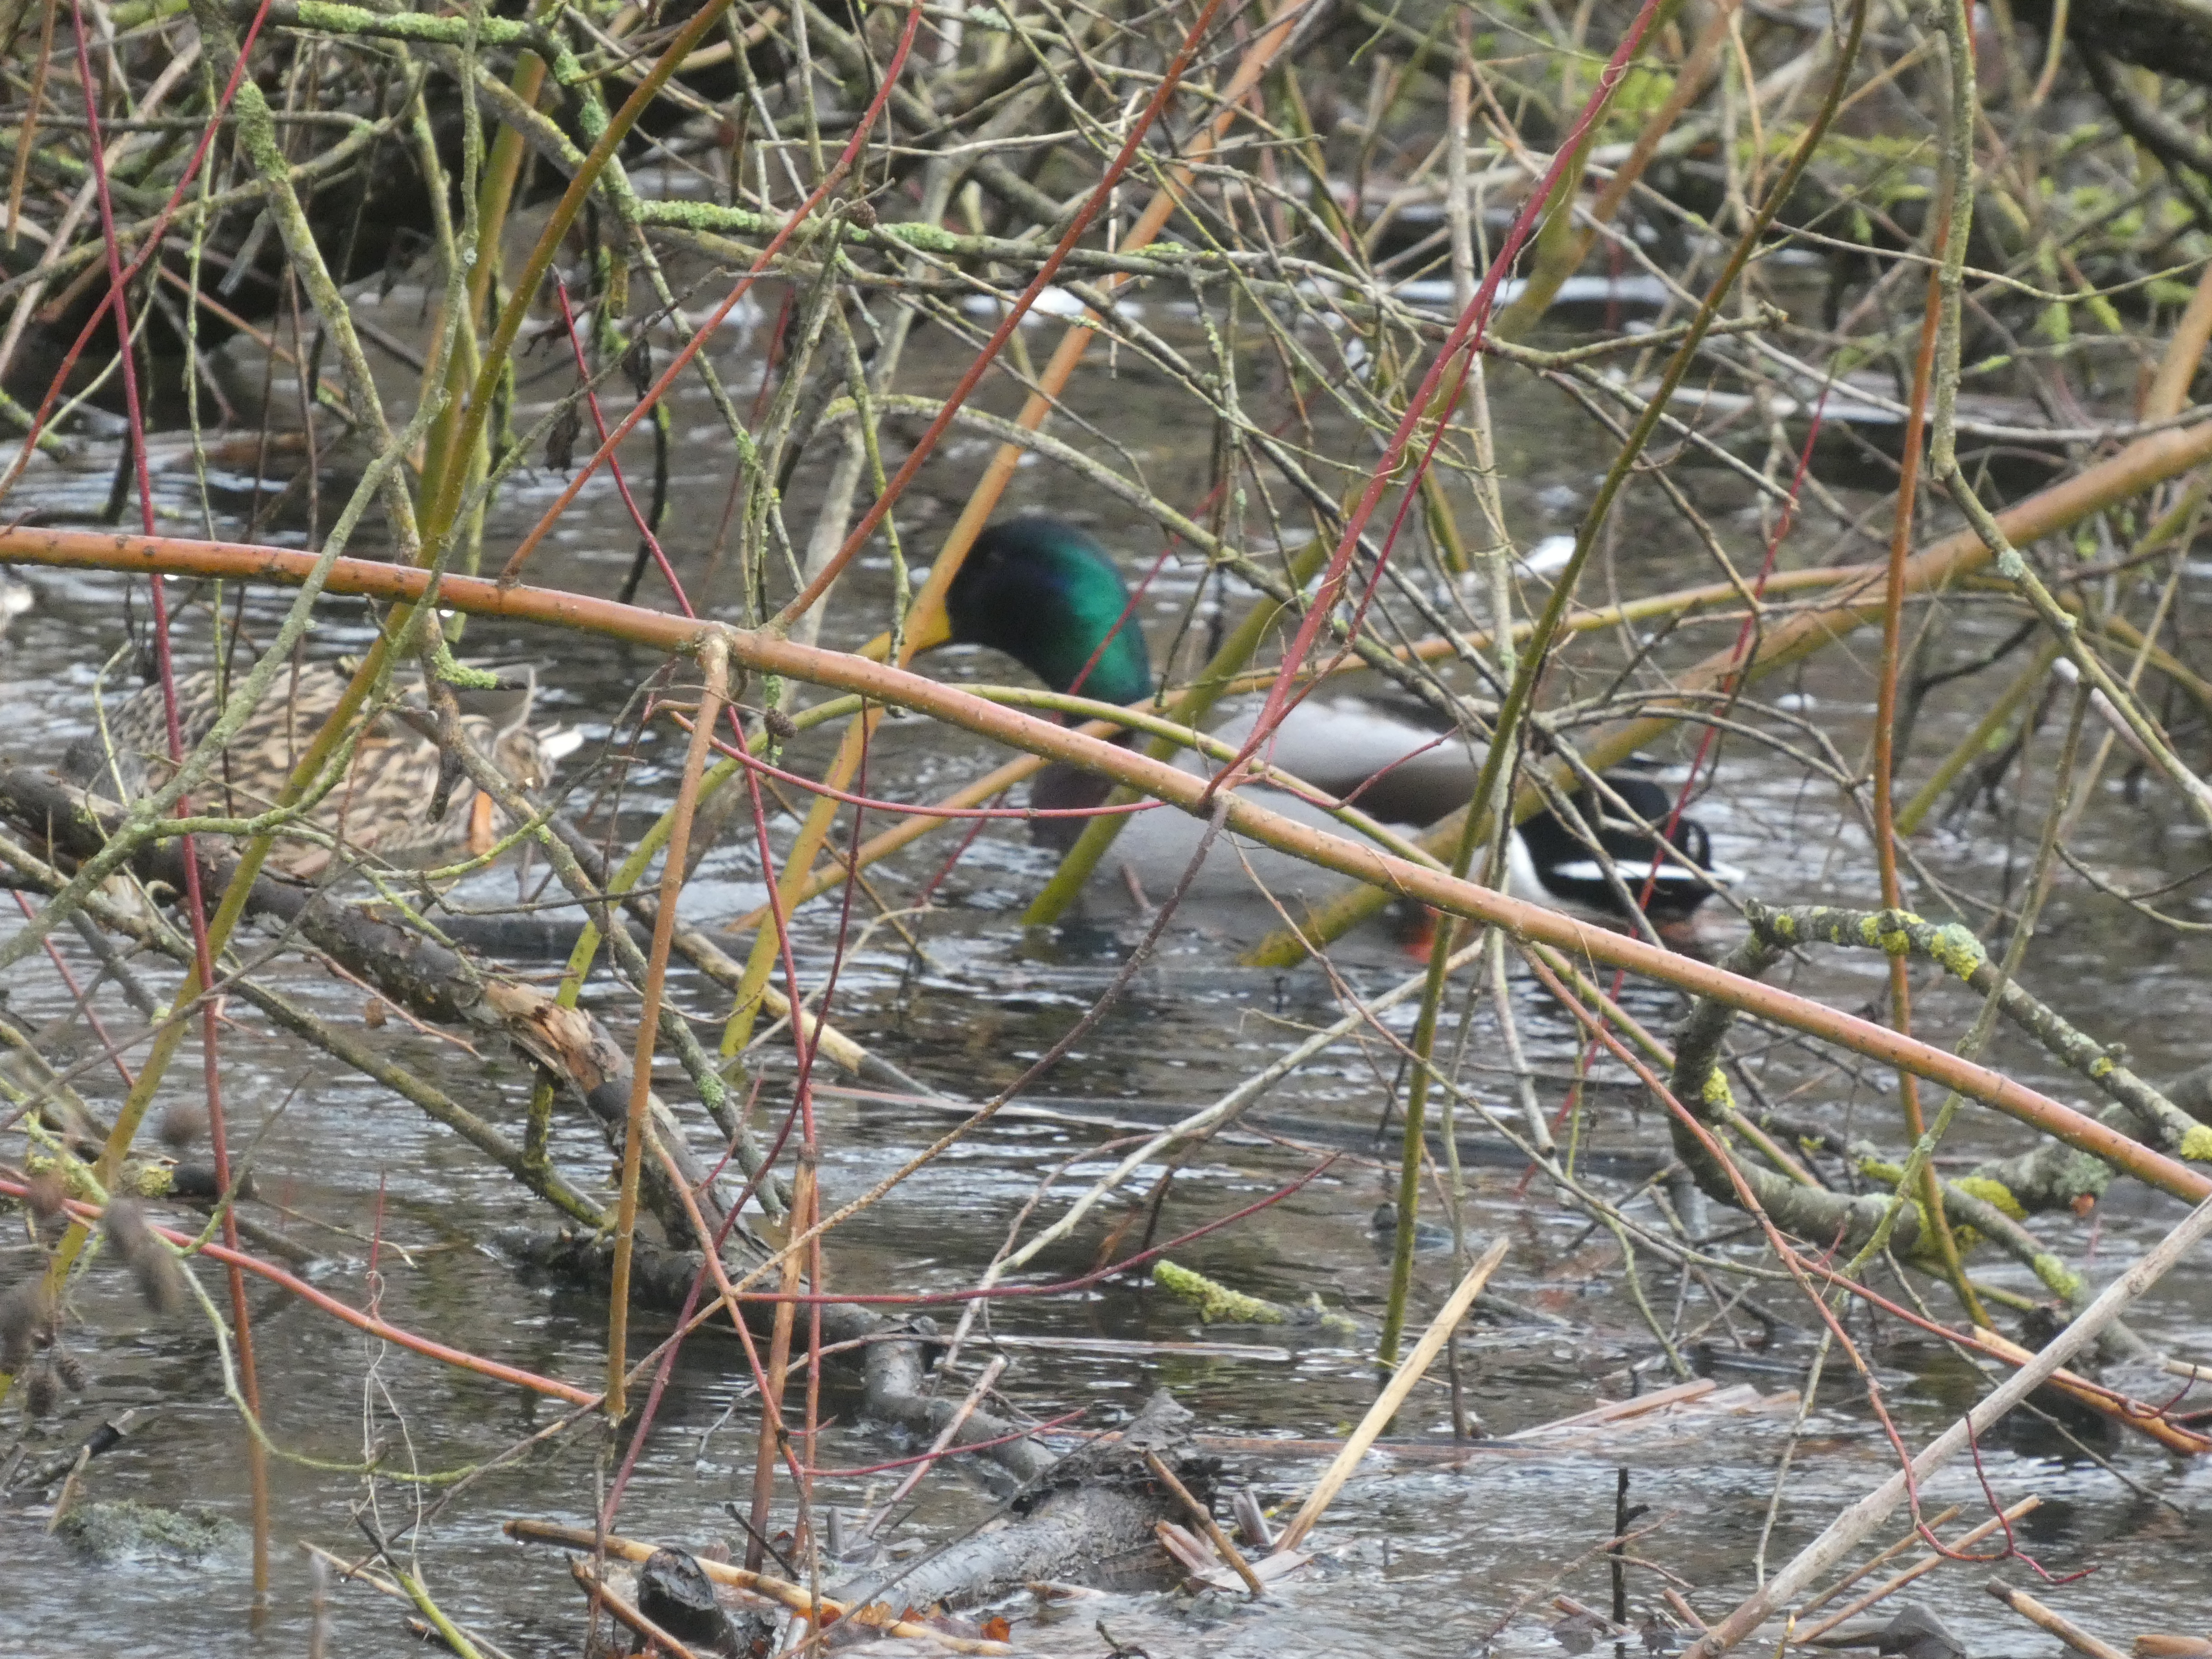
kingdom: Animalia
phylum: Chordata
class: Aves
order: Anseriformes
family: Anatidae
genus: Anas
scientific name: Anas platyrhynchos
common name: Gråand
